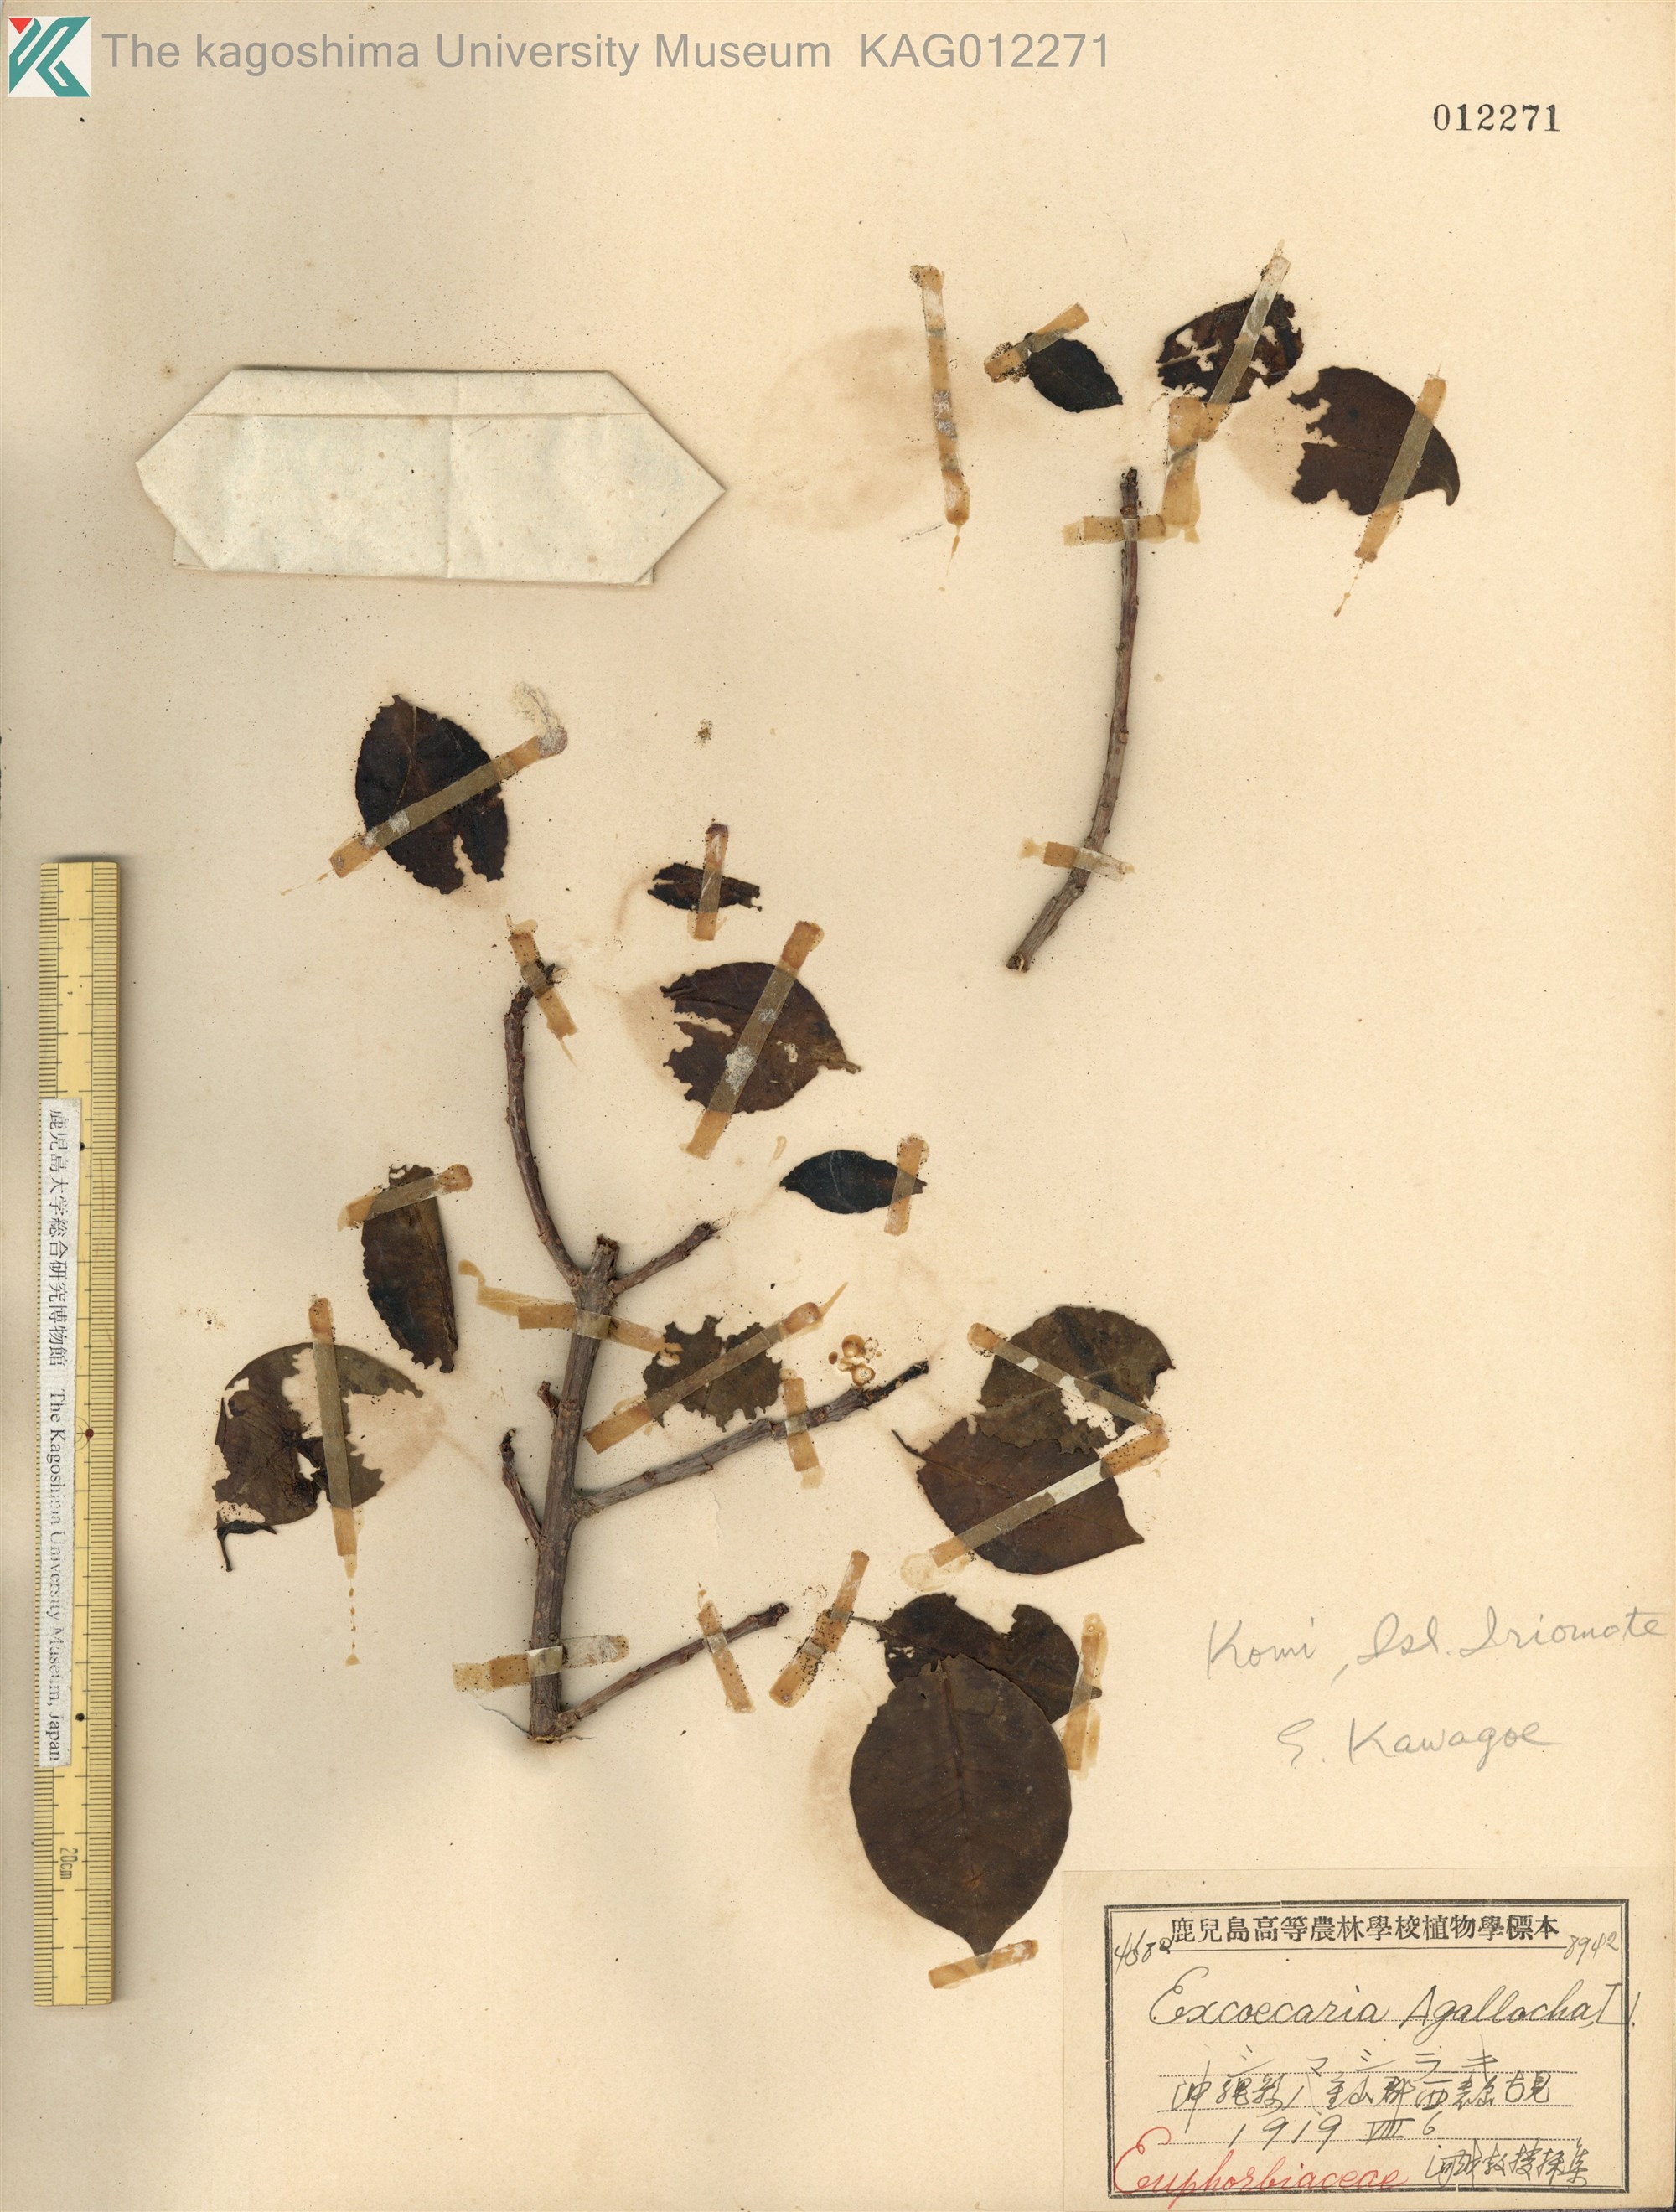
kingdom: Plantae
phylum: Tracheophyta
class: Magnoliopsida
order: Malpighiales
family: Euphorbiaceae
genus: Excoecaria
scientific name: Excoecaria agallocha
